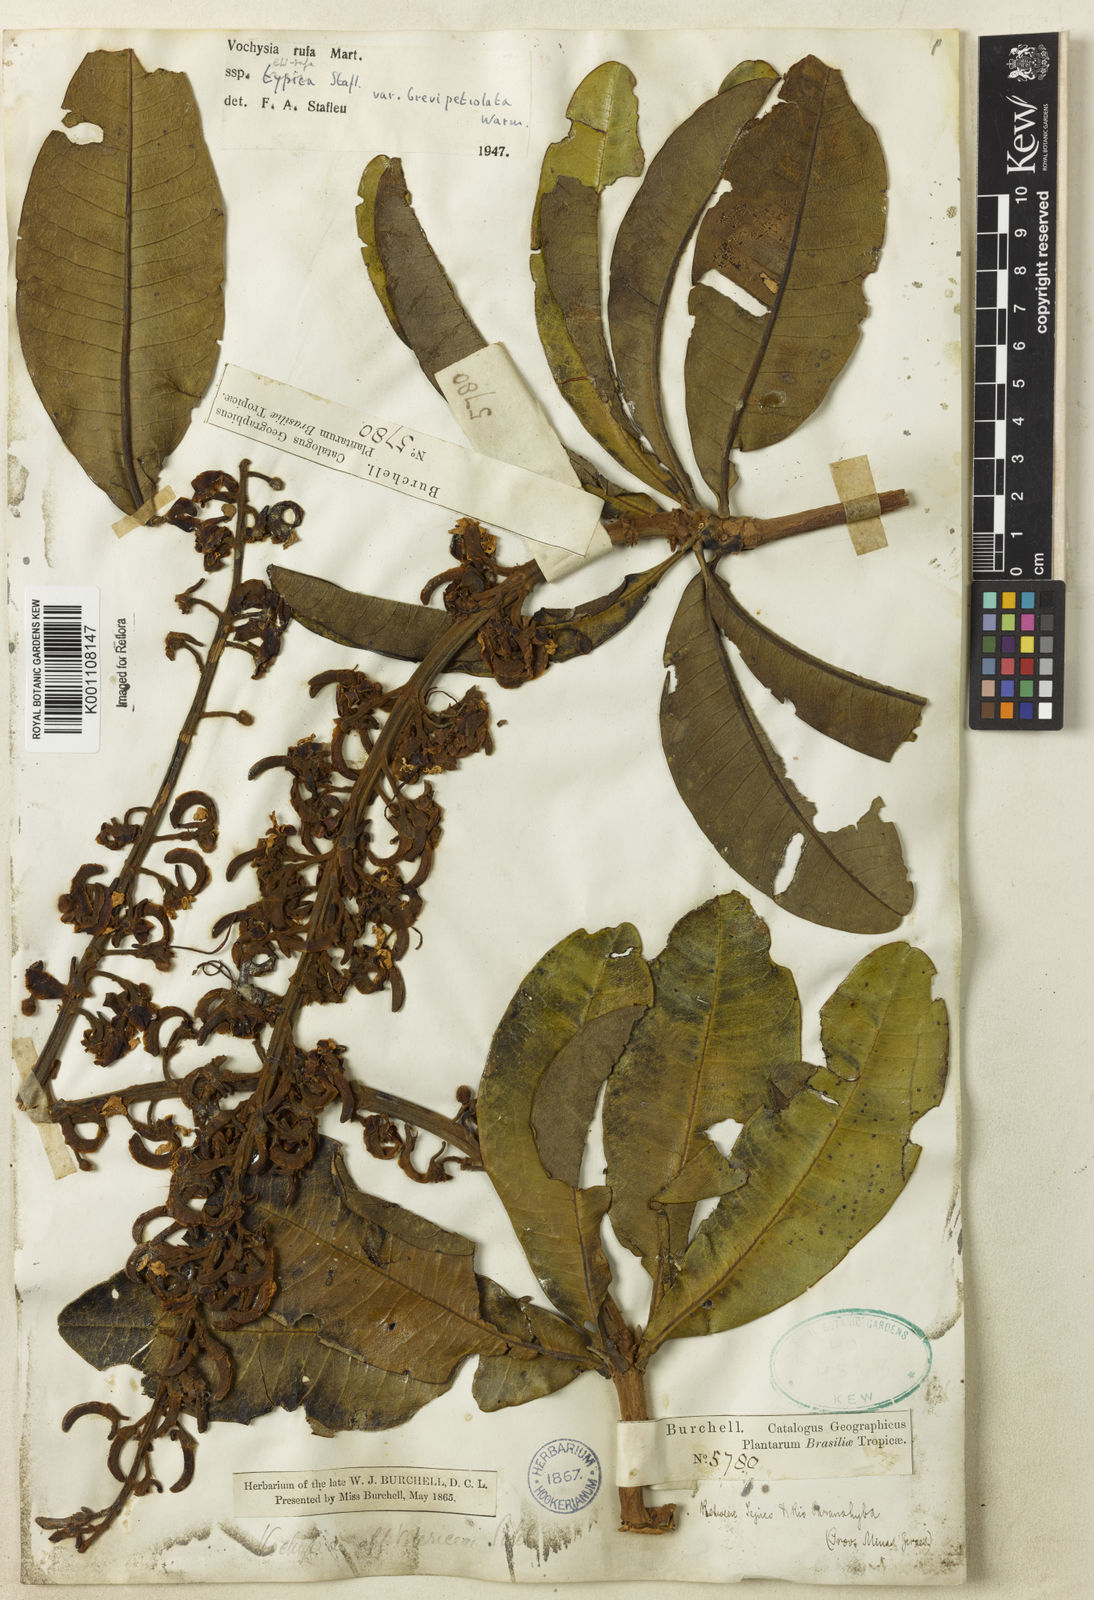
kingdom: Plantae
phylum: Tracheophyta
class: Magnoliopsida
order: Myrtales
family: Vochysiaceae
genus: Vochysia
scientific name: Vochysia rufa
